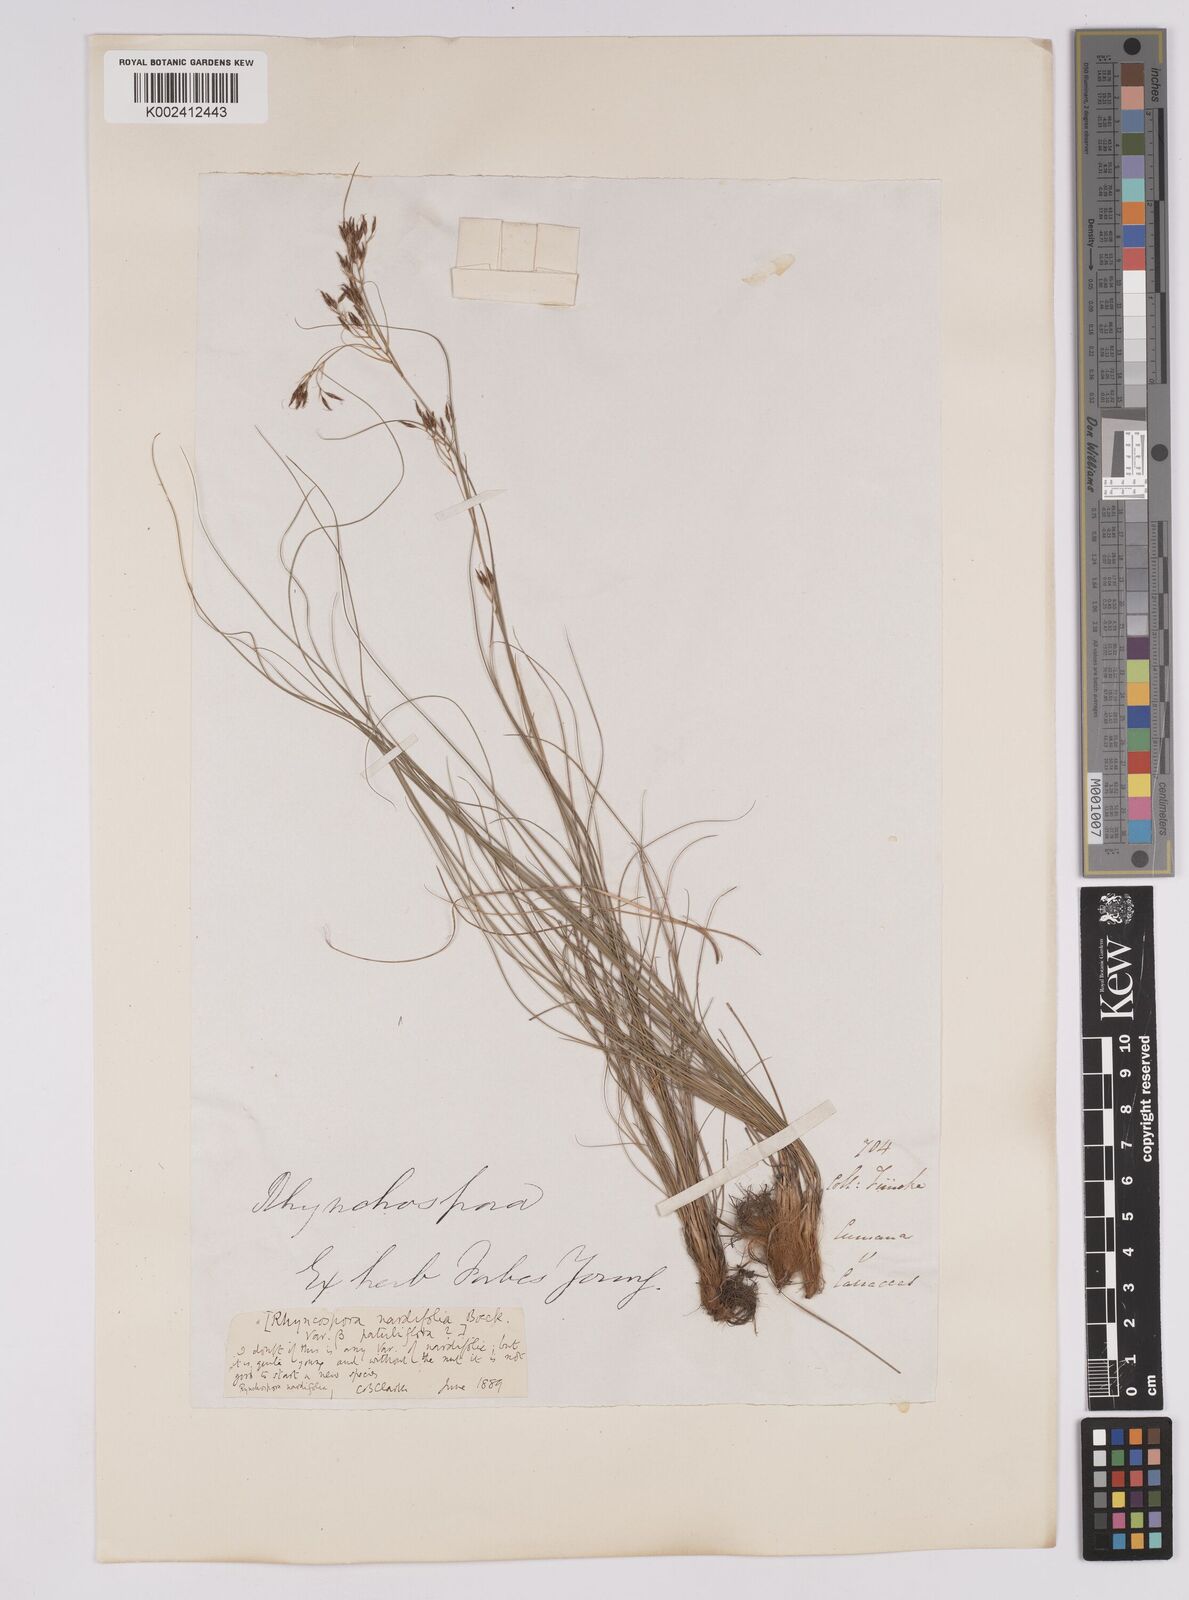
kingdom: Plantae
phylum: Tracheophyta
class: Liliopsida
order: Poales
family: Cyperaceae
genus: Rhynchospora
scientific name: Rhynchospora nardifolia
